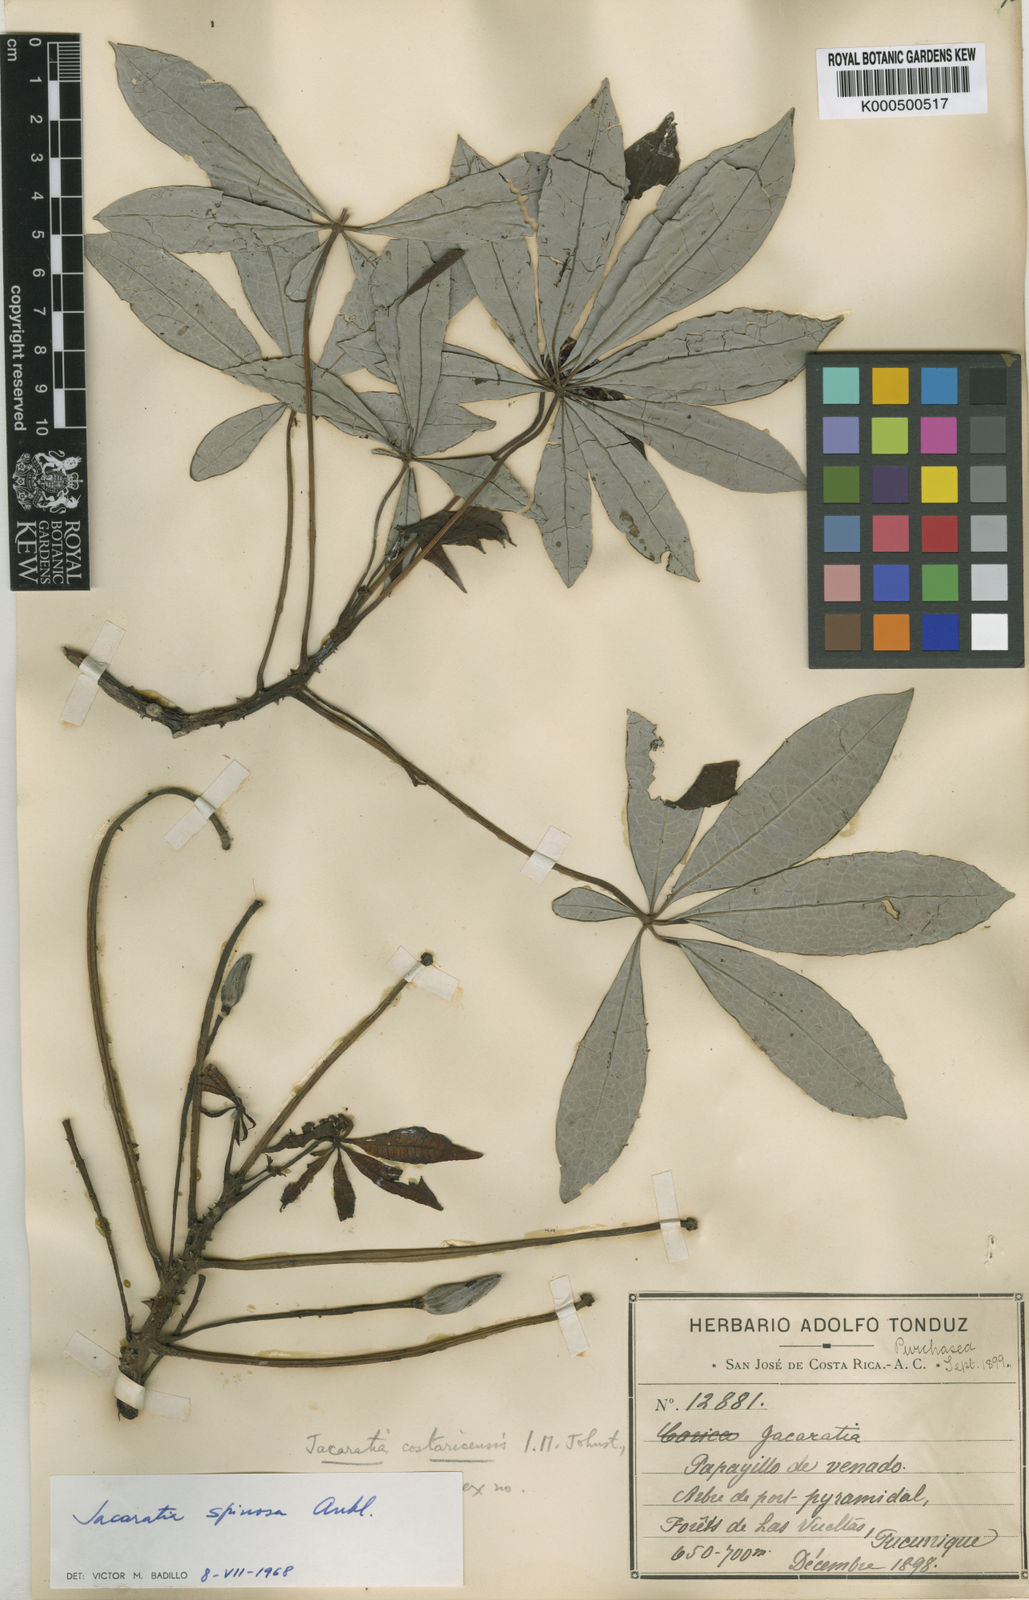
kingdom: Plantae
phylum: Tracheophyta
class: Magnoliopsida
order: Brassicales
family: Caricaceae
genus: Jacaratia
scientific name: Jacaratia spinosa
